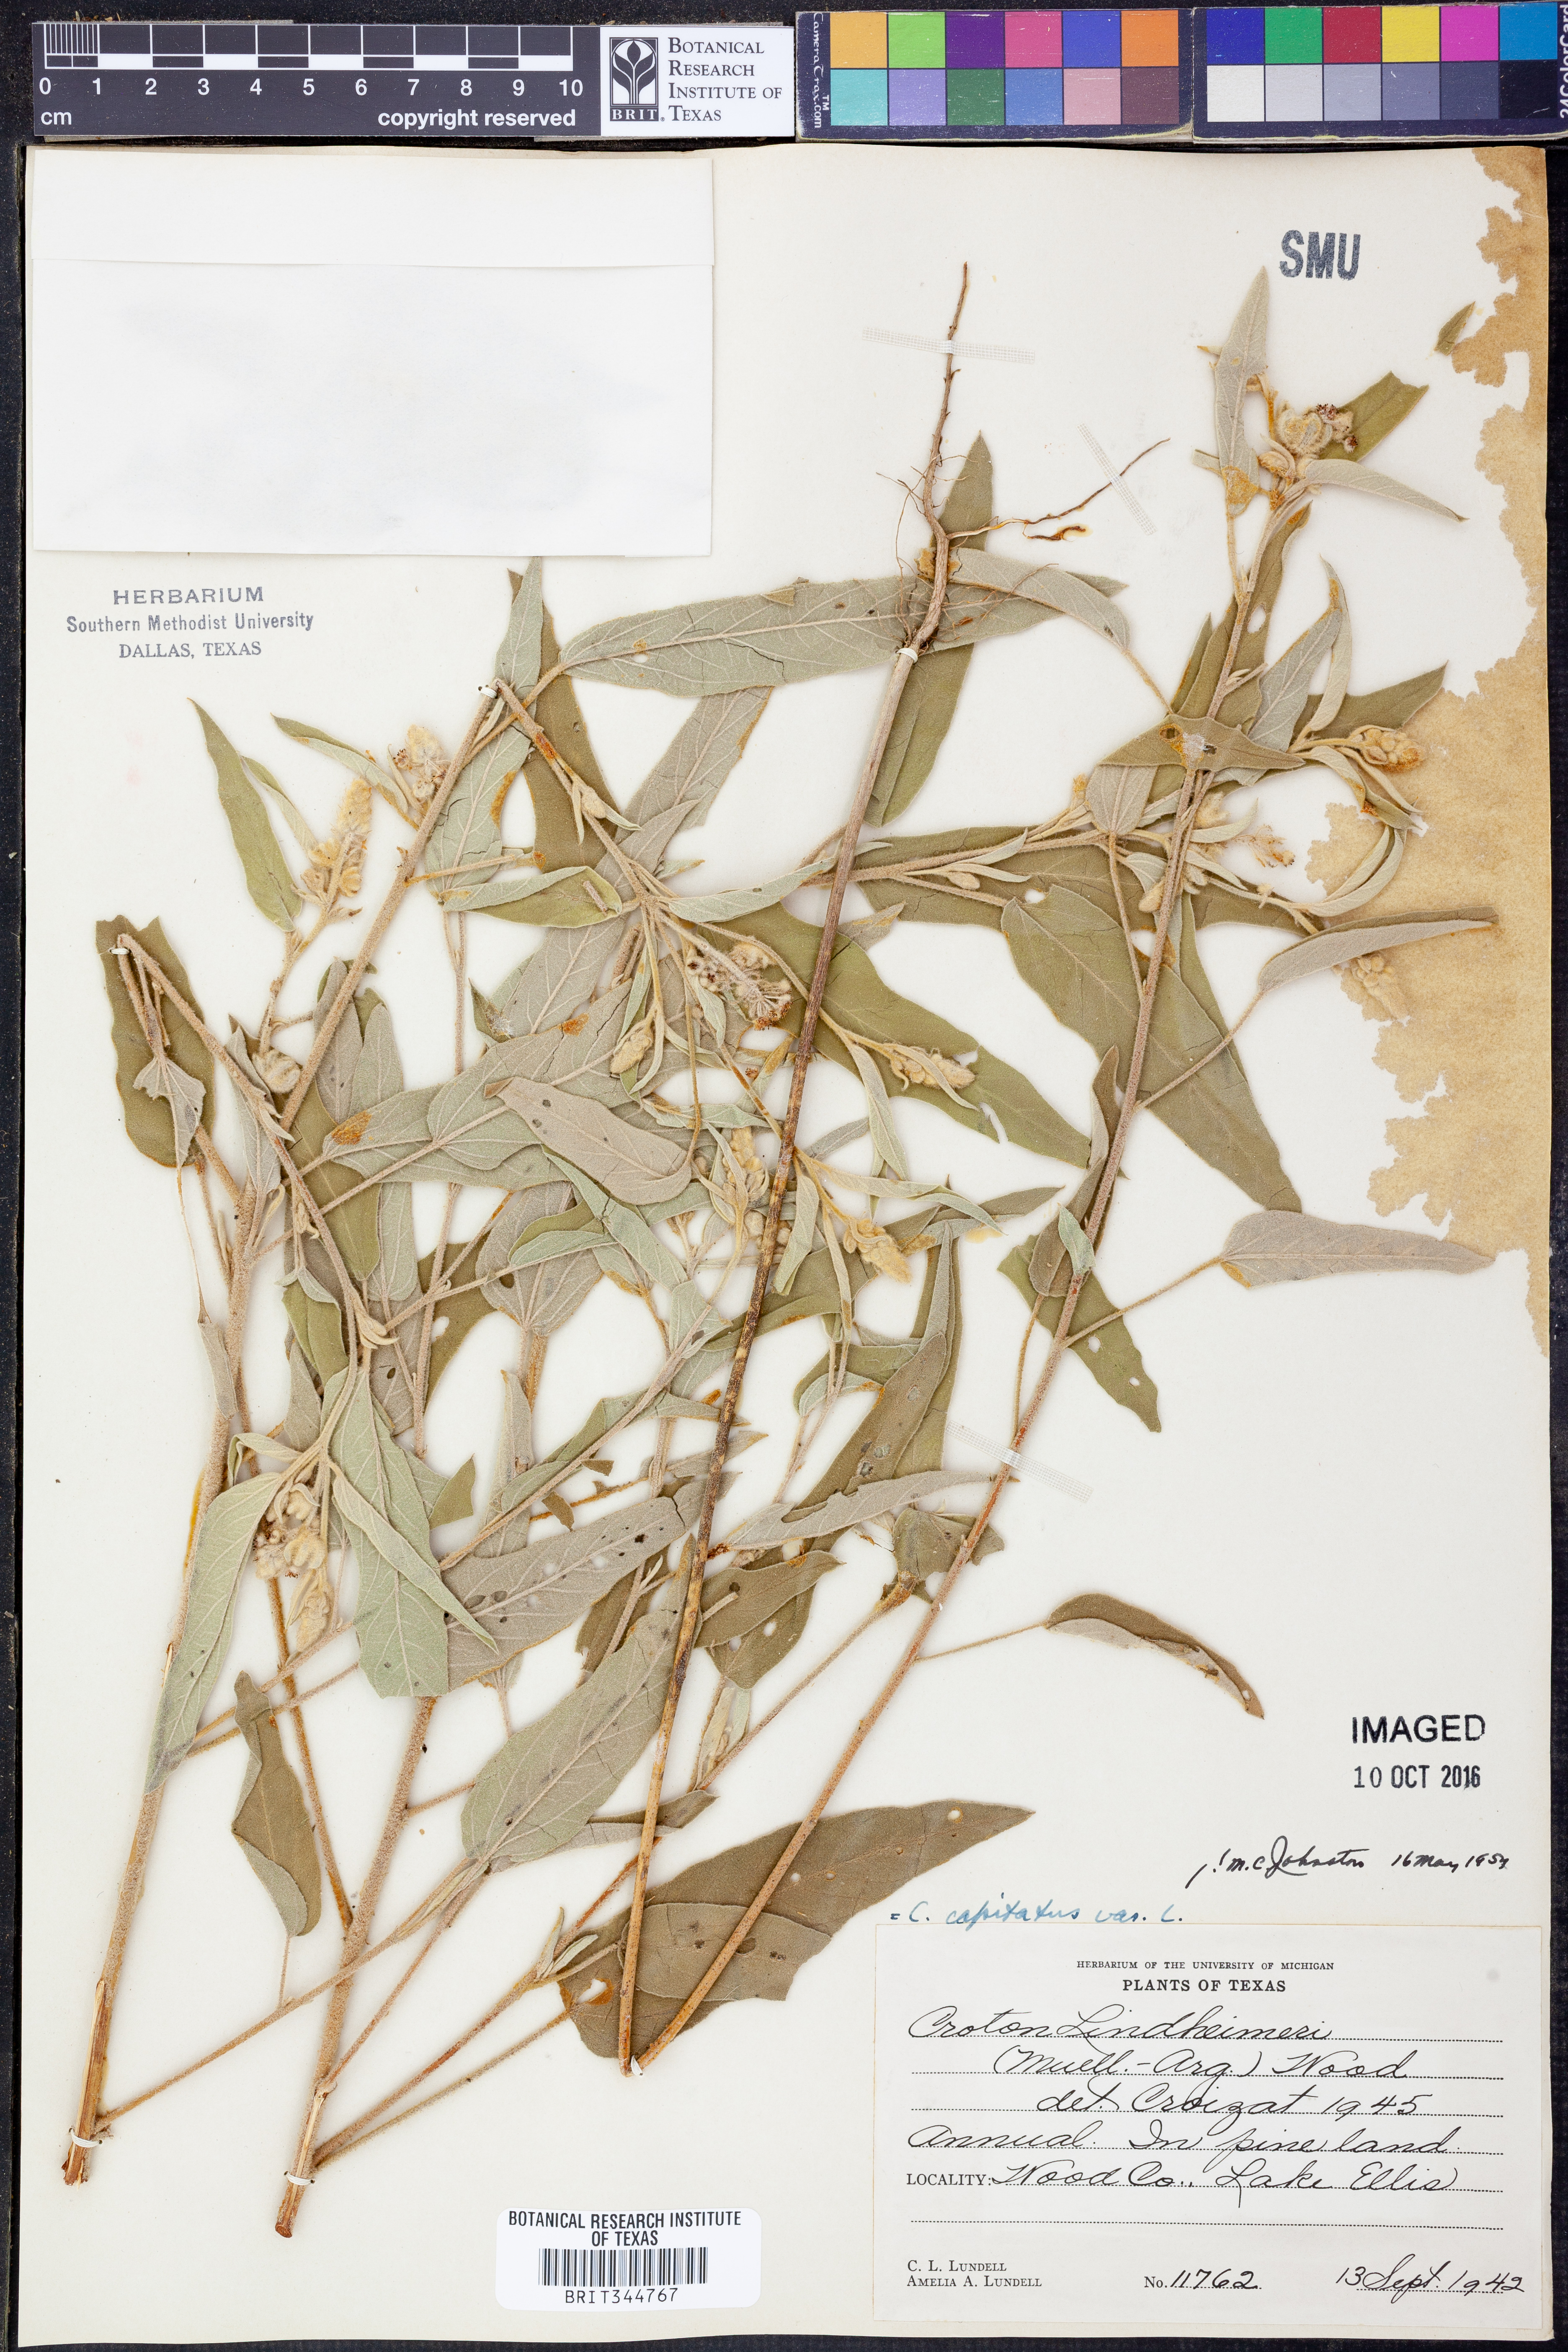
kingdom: Plantae
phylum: Tracheophyta
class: Magnoliopsida
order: Malpighiales
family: Euphorbiaceae
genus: Croton
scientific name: Croton lindheimeri
